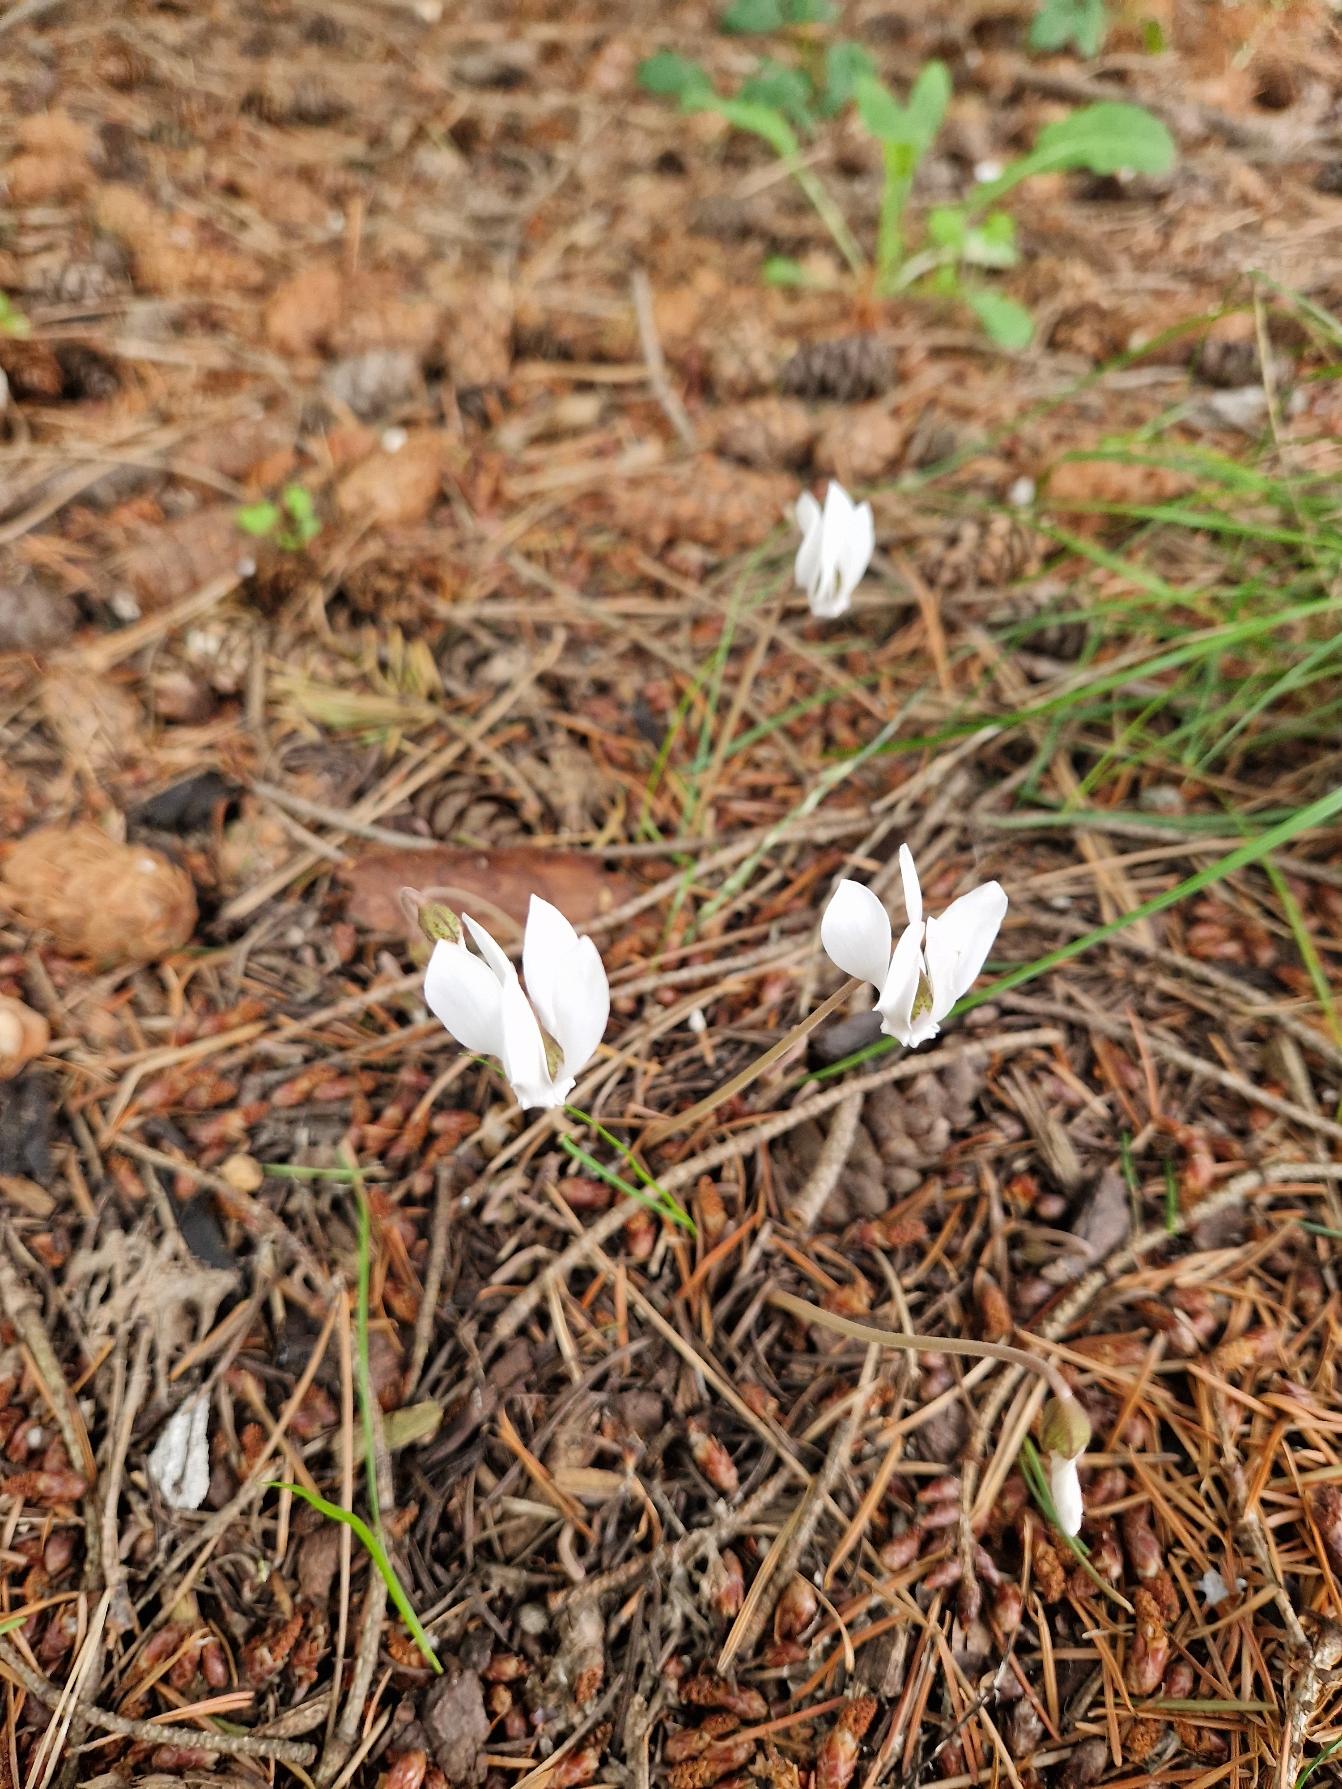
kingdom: Plantae
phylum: Tracheophyta
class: Magnoliopsida
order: Ericales
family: Primulaceae
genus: Cyclamen
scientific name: Cyclamen hederifolium
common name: Vedbendbladet alpeviol
